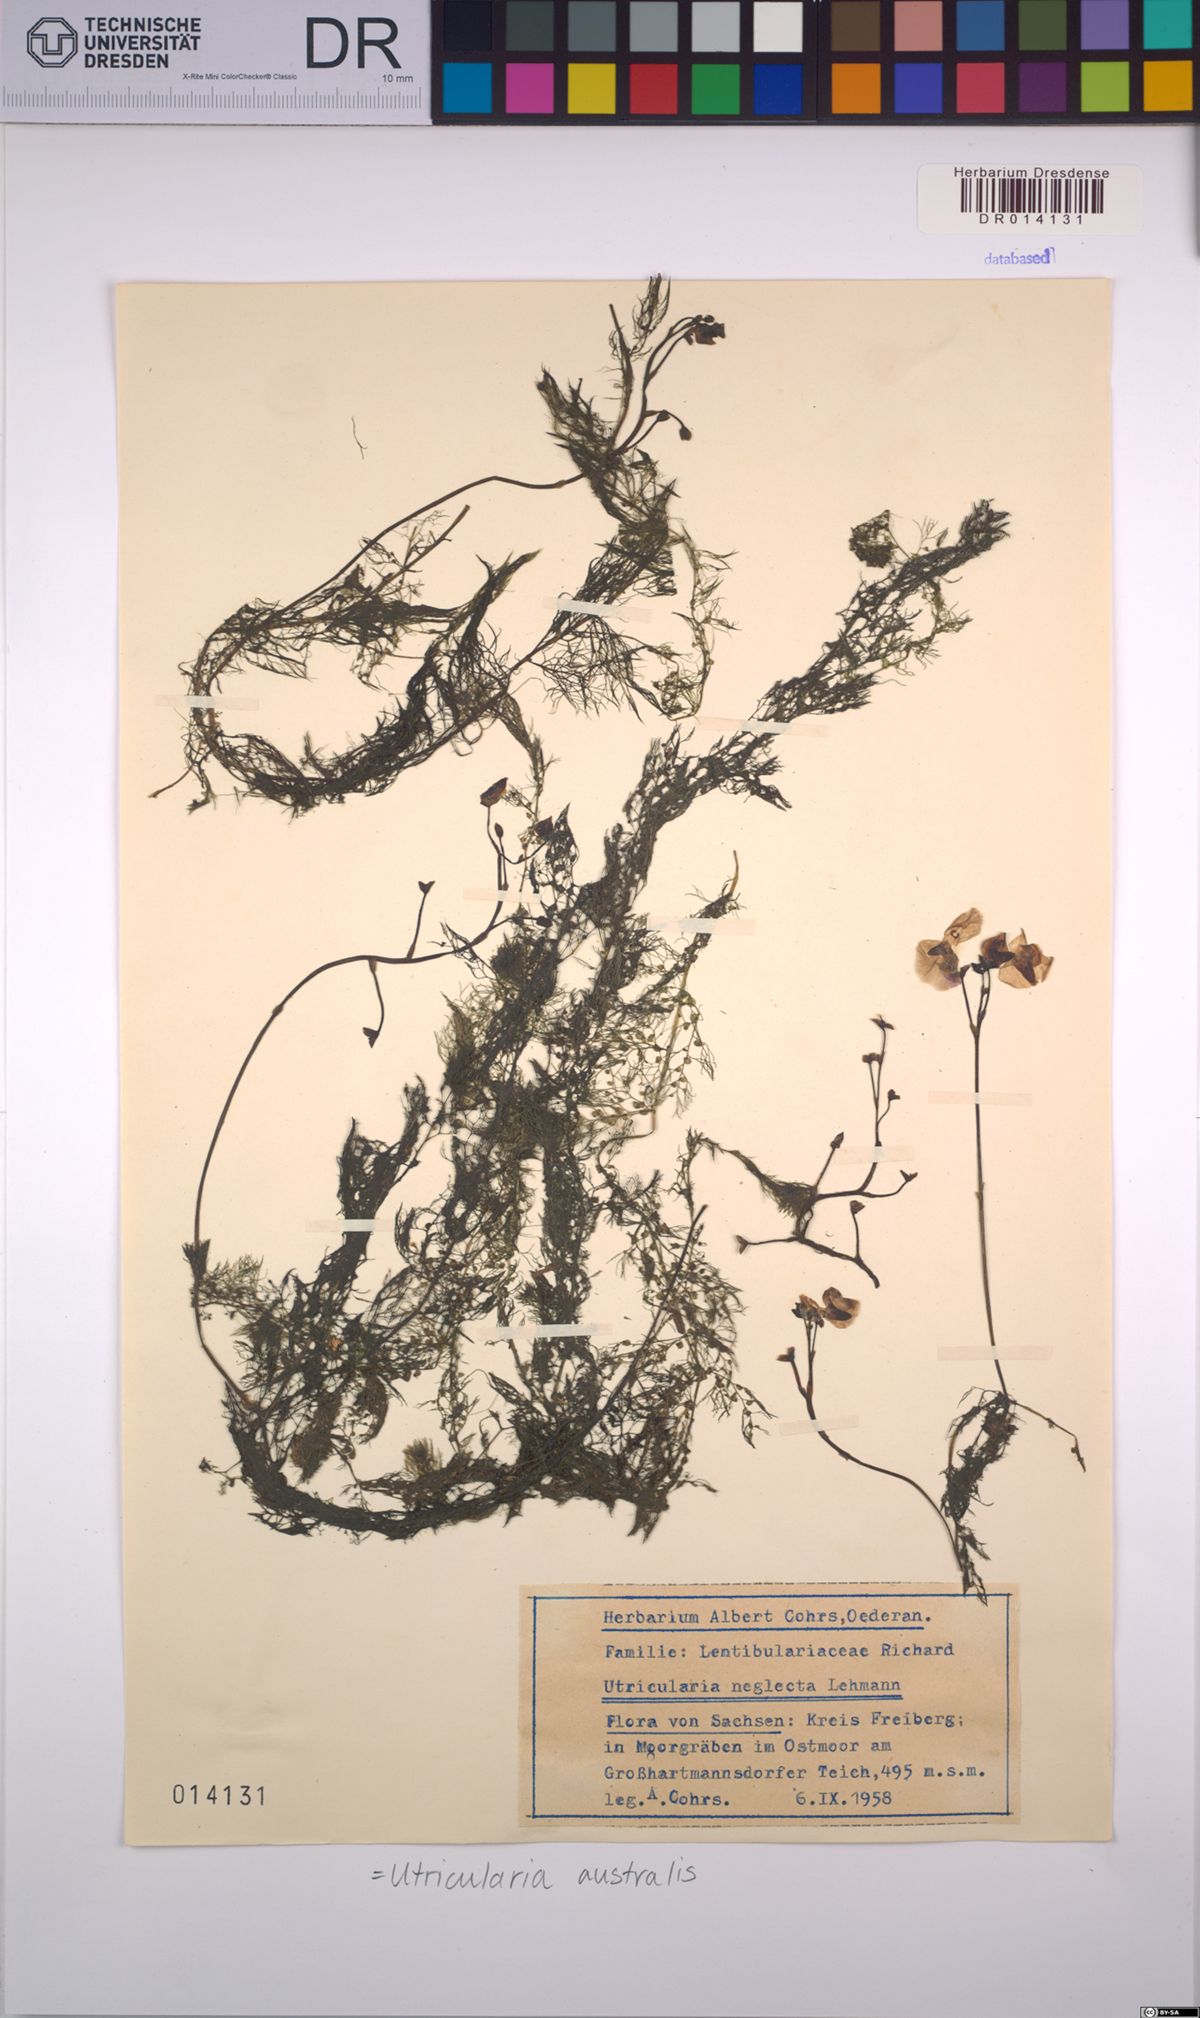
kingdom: Plantae
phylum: Tracheophyta
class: Magnoliopsida
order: Lamiales
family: Lentibulariaceae
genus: Utricularia
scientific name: Utricularia australis
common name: Bladderwort
